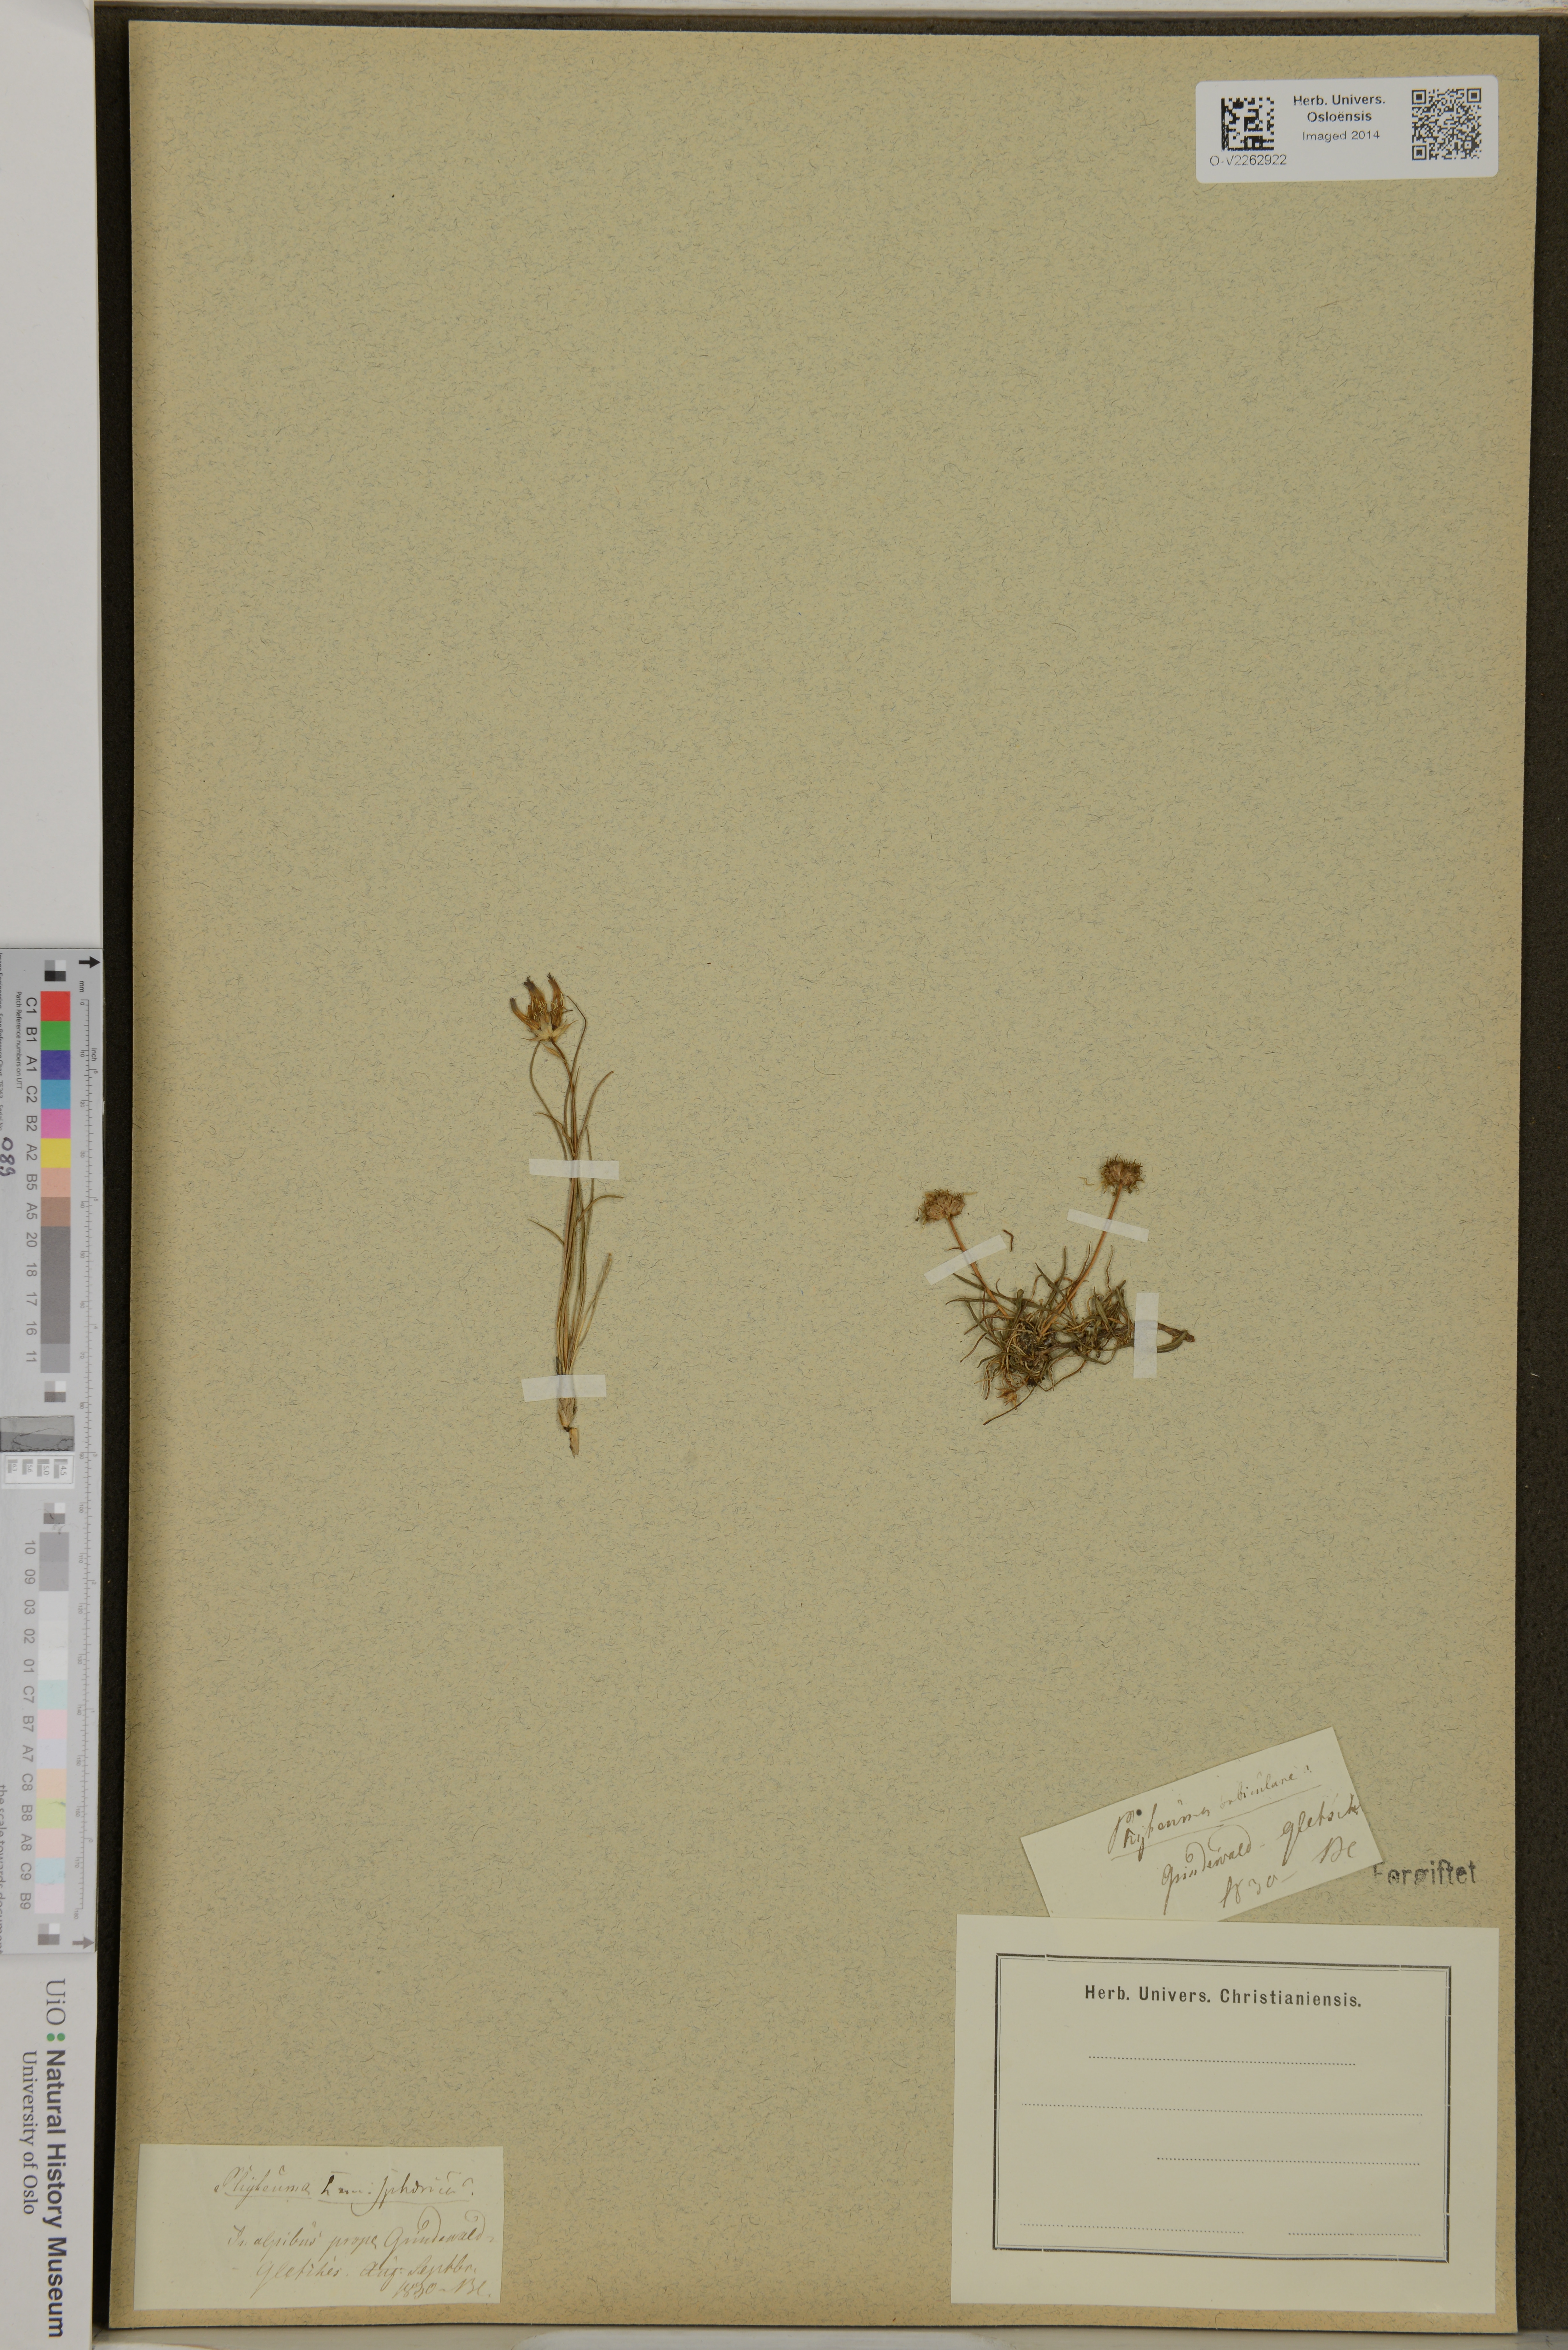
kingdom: Plantae
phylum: Tracheophyta
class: Magnoliopsida
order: Asterales
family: Campanulaceae
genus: Phyteuma
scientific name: Phyteuma hemisphaericum
